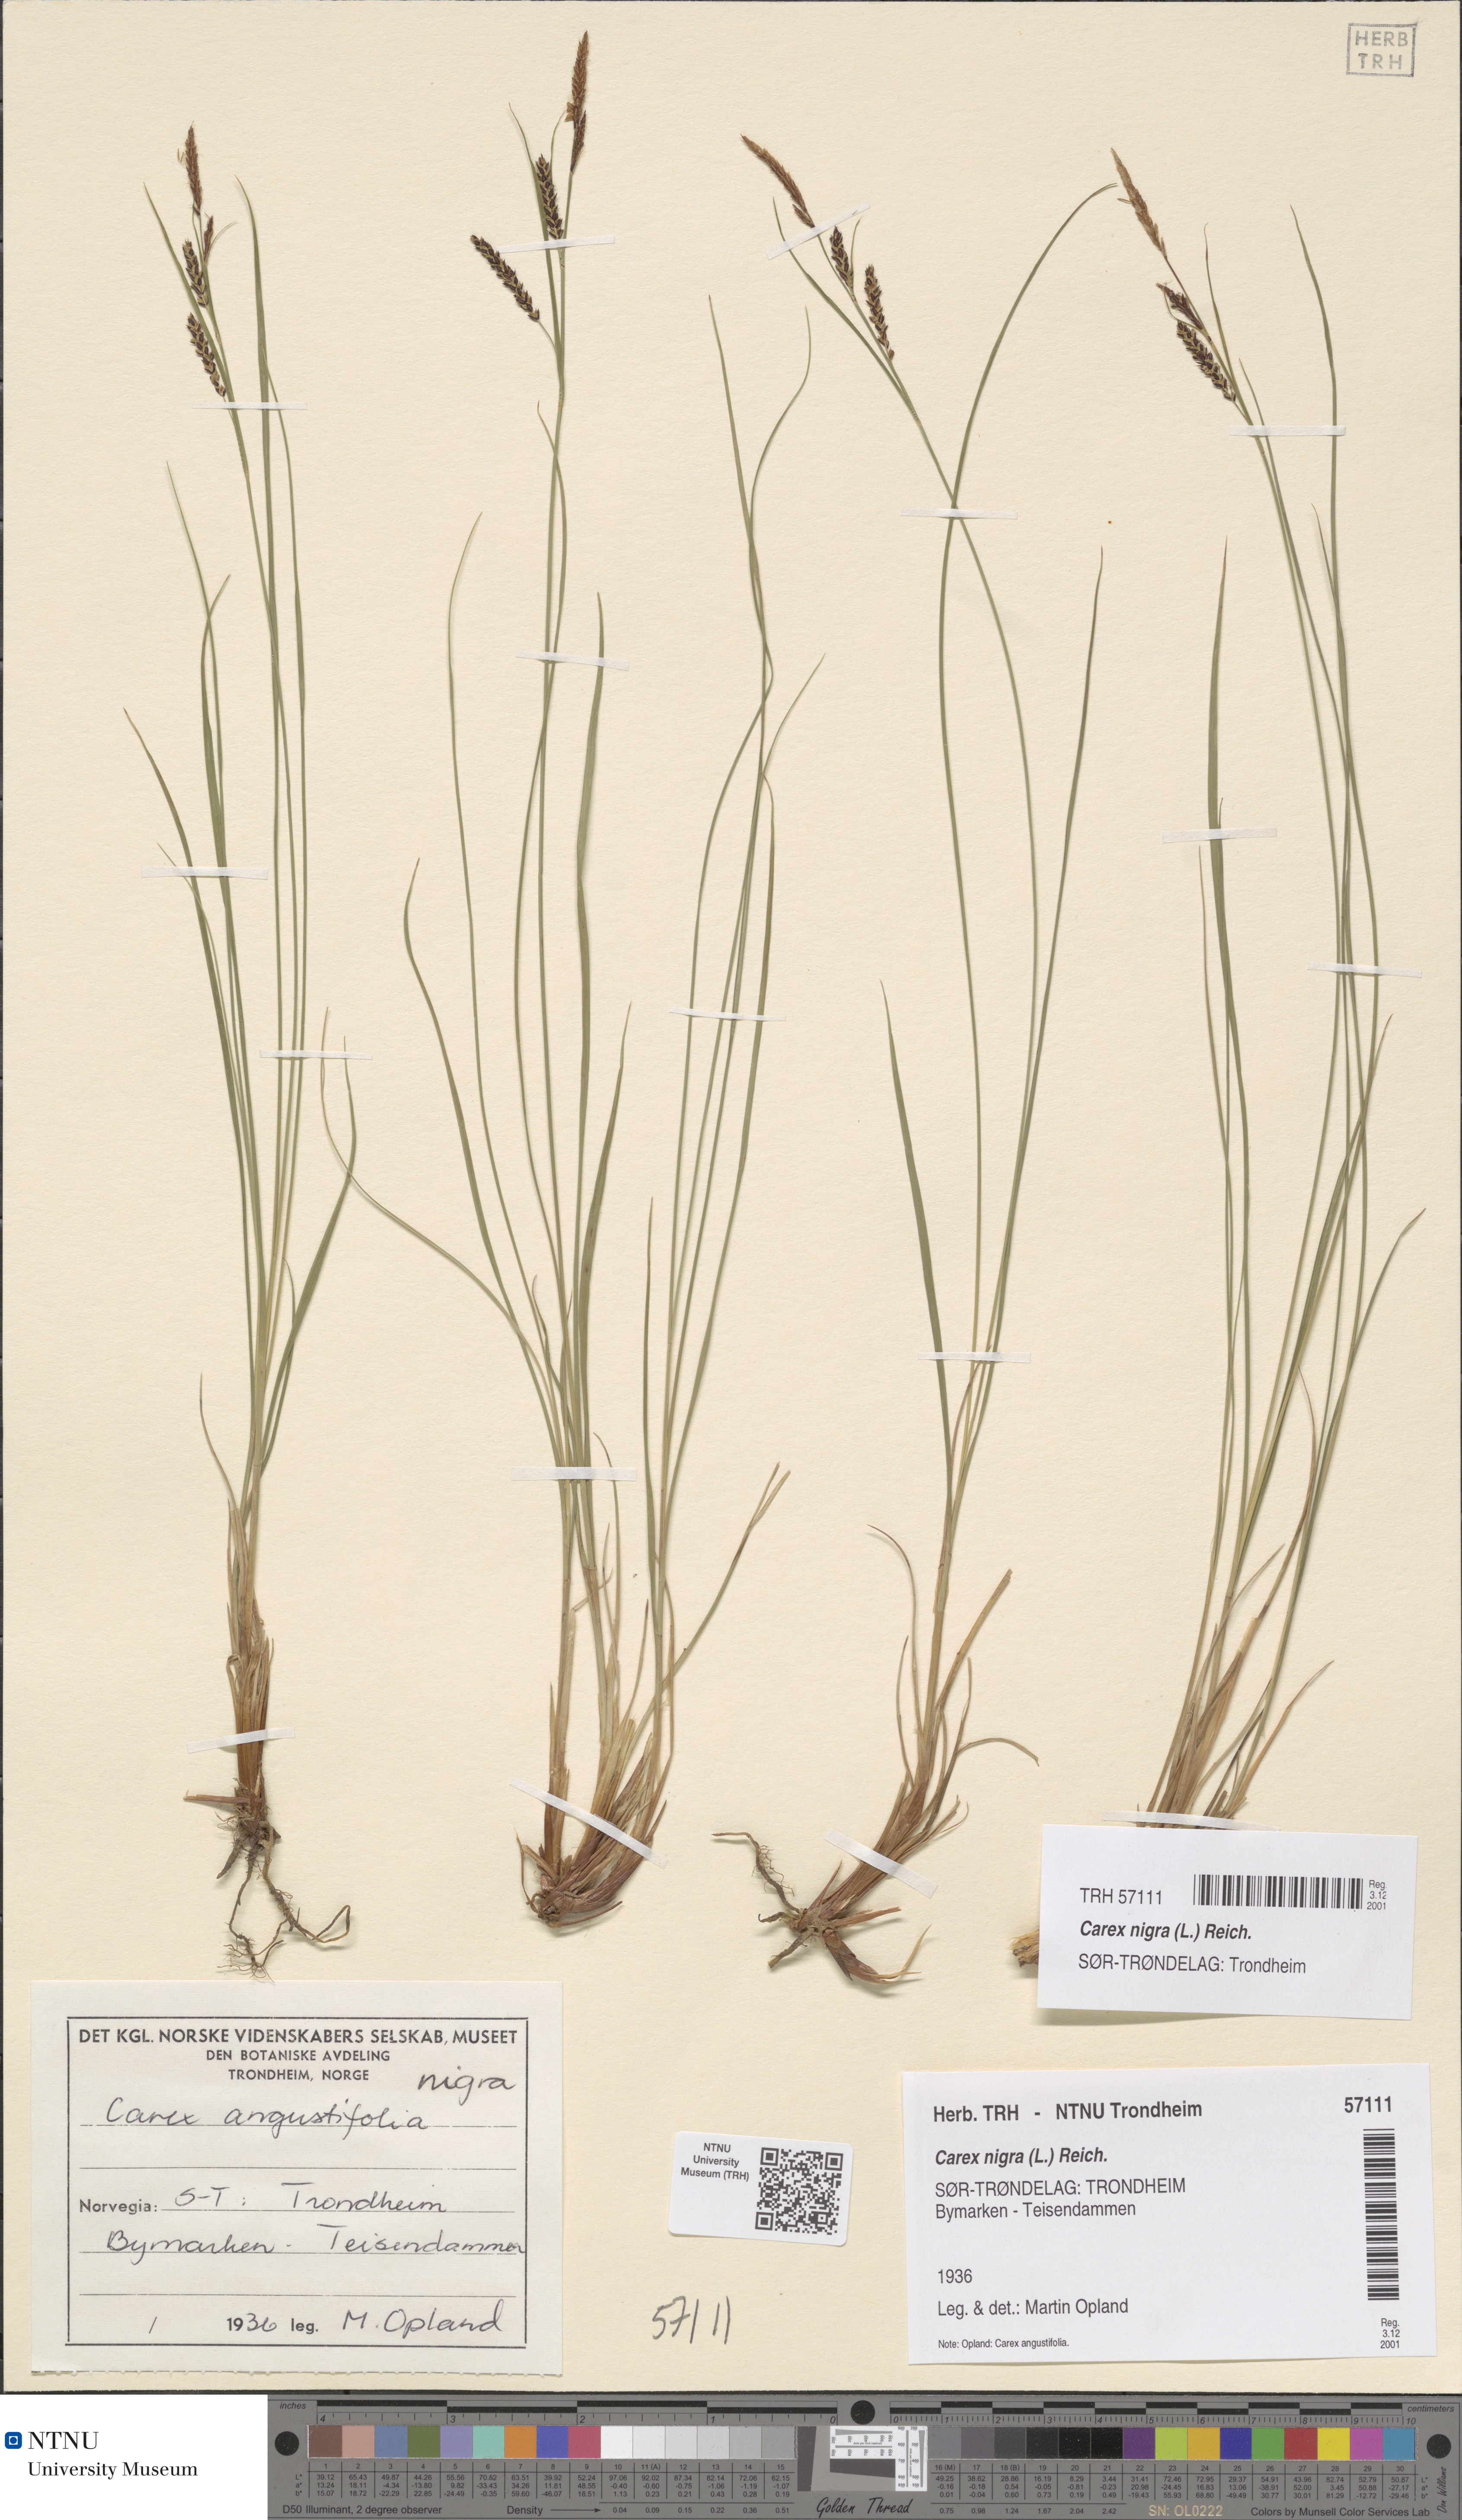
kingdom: Plantae
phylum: Tracheophyta
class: Liliopsida
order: Poales
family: Cyperaceae
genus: Carex
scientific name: Carex nigra
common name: Common sedge
